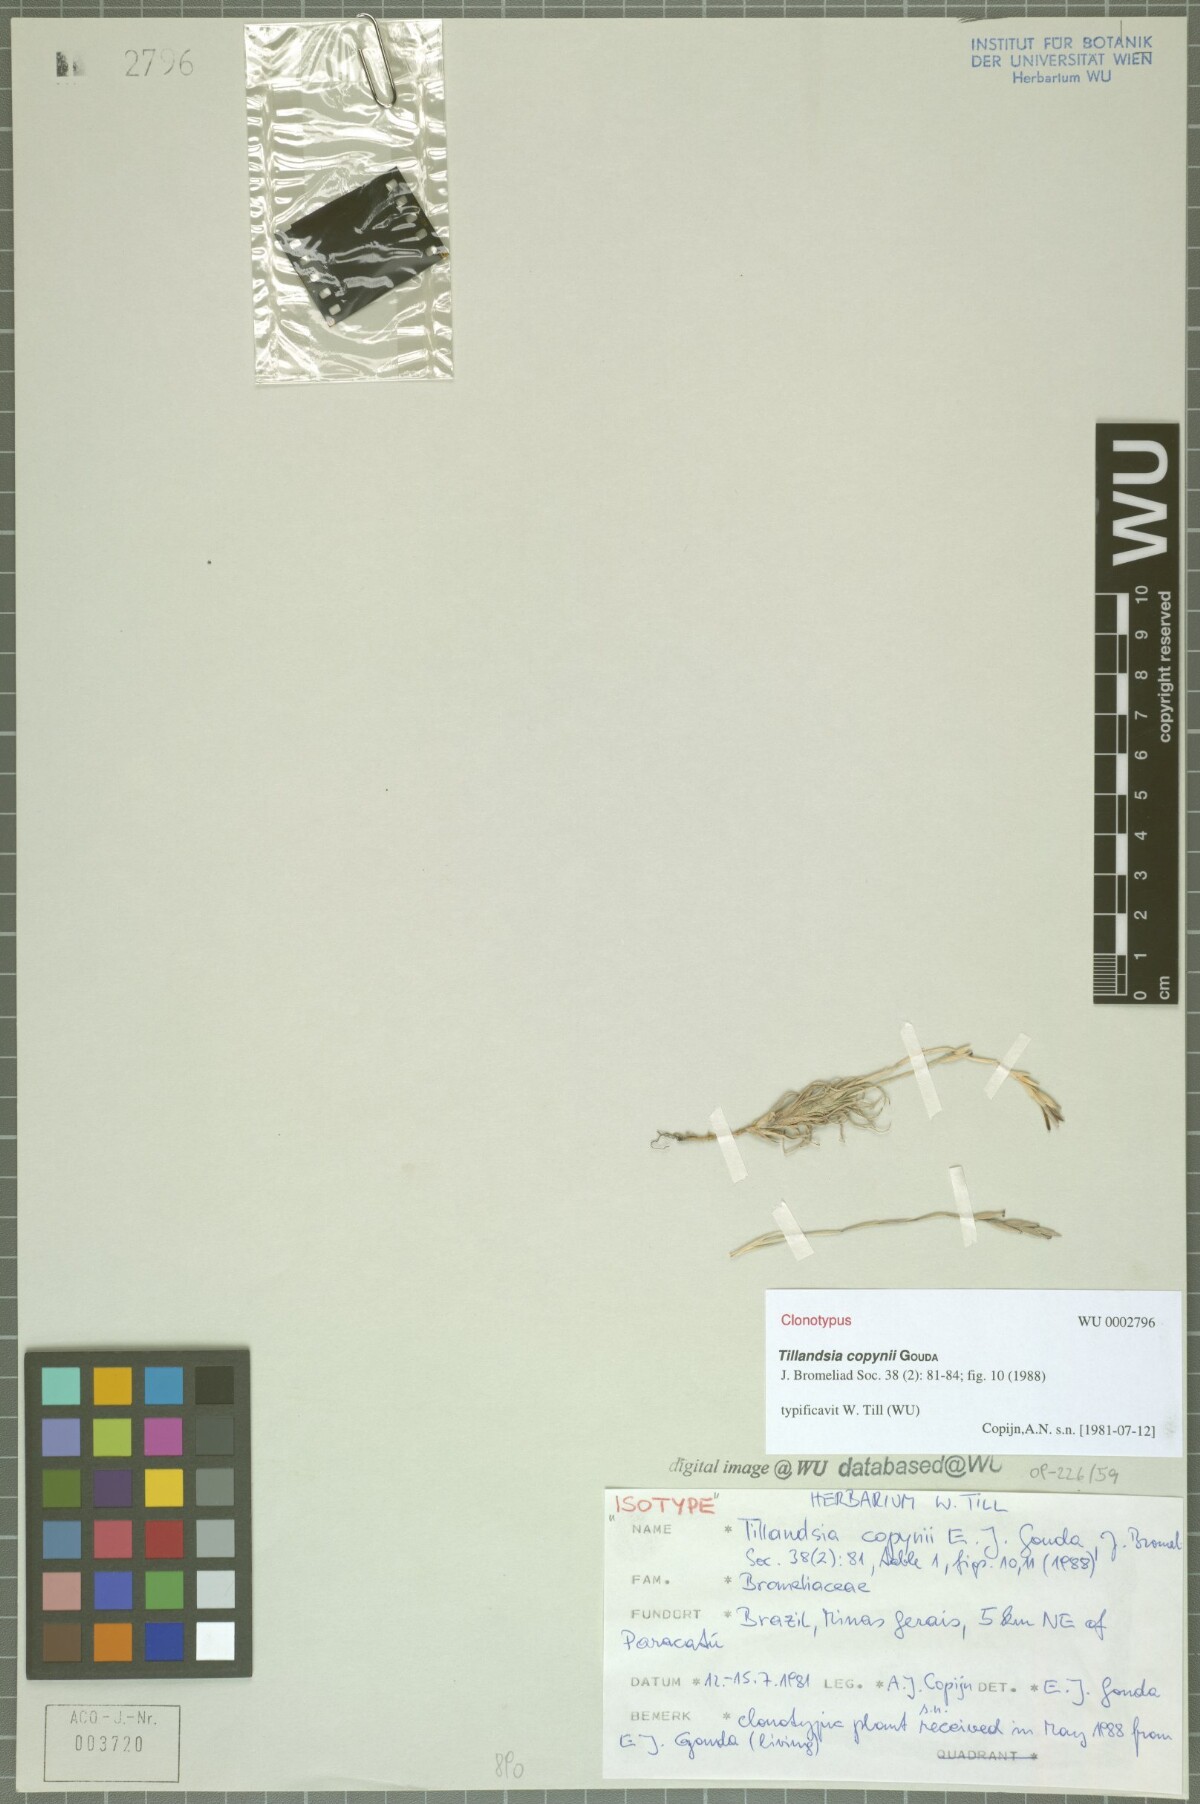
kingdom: Plantae
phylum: Tracheophyta
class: Liliopsida
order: Poales
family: Bromeliaceae
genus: Tillandsia
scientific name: Tillandsia copynii
